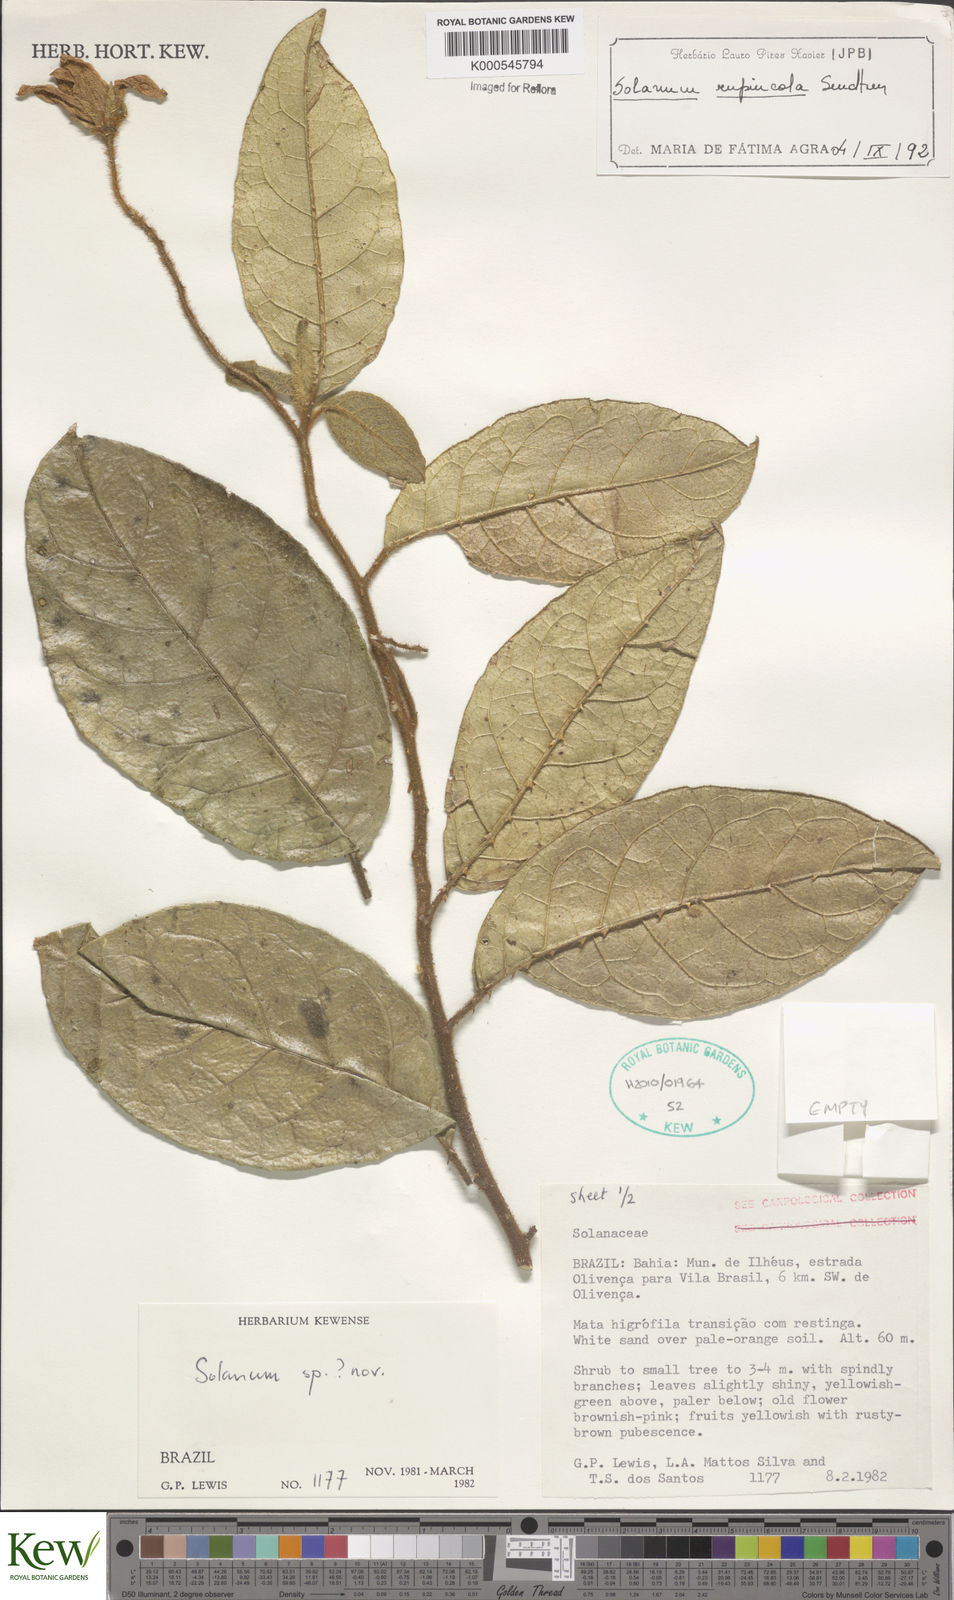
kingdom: Plantae
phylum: Tracheophyta
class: Magnoliopsida
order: Solanales
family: Solanaceae
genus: Solanum
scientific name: Solanum rupincola
